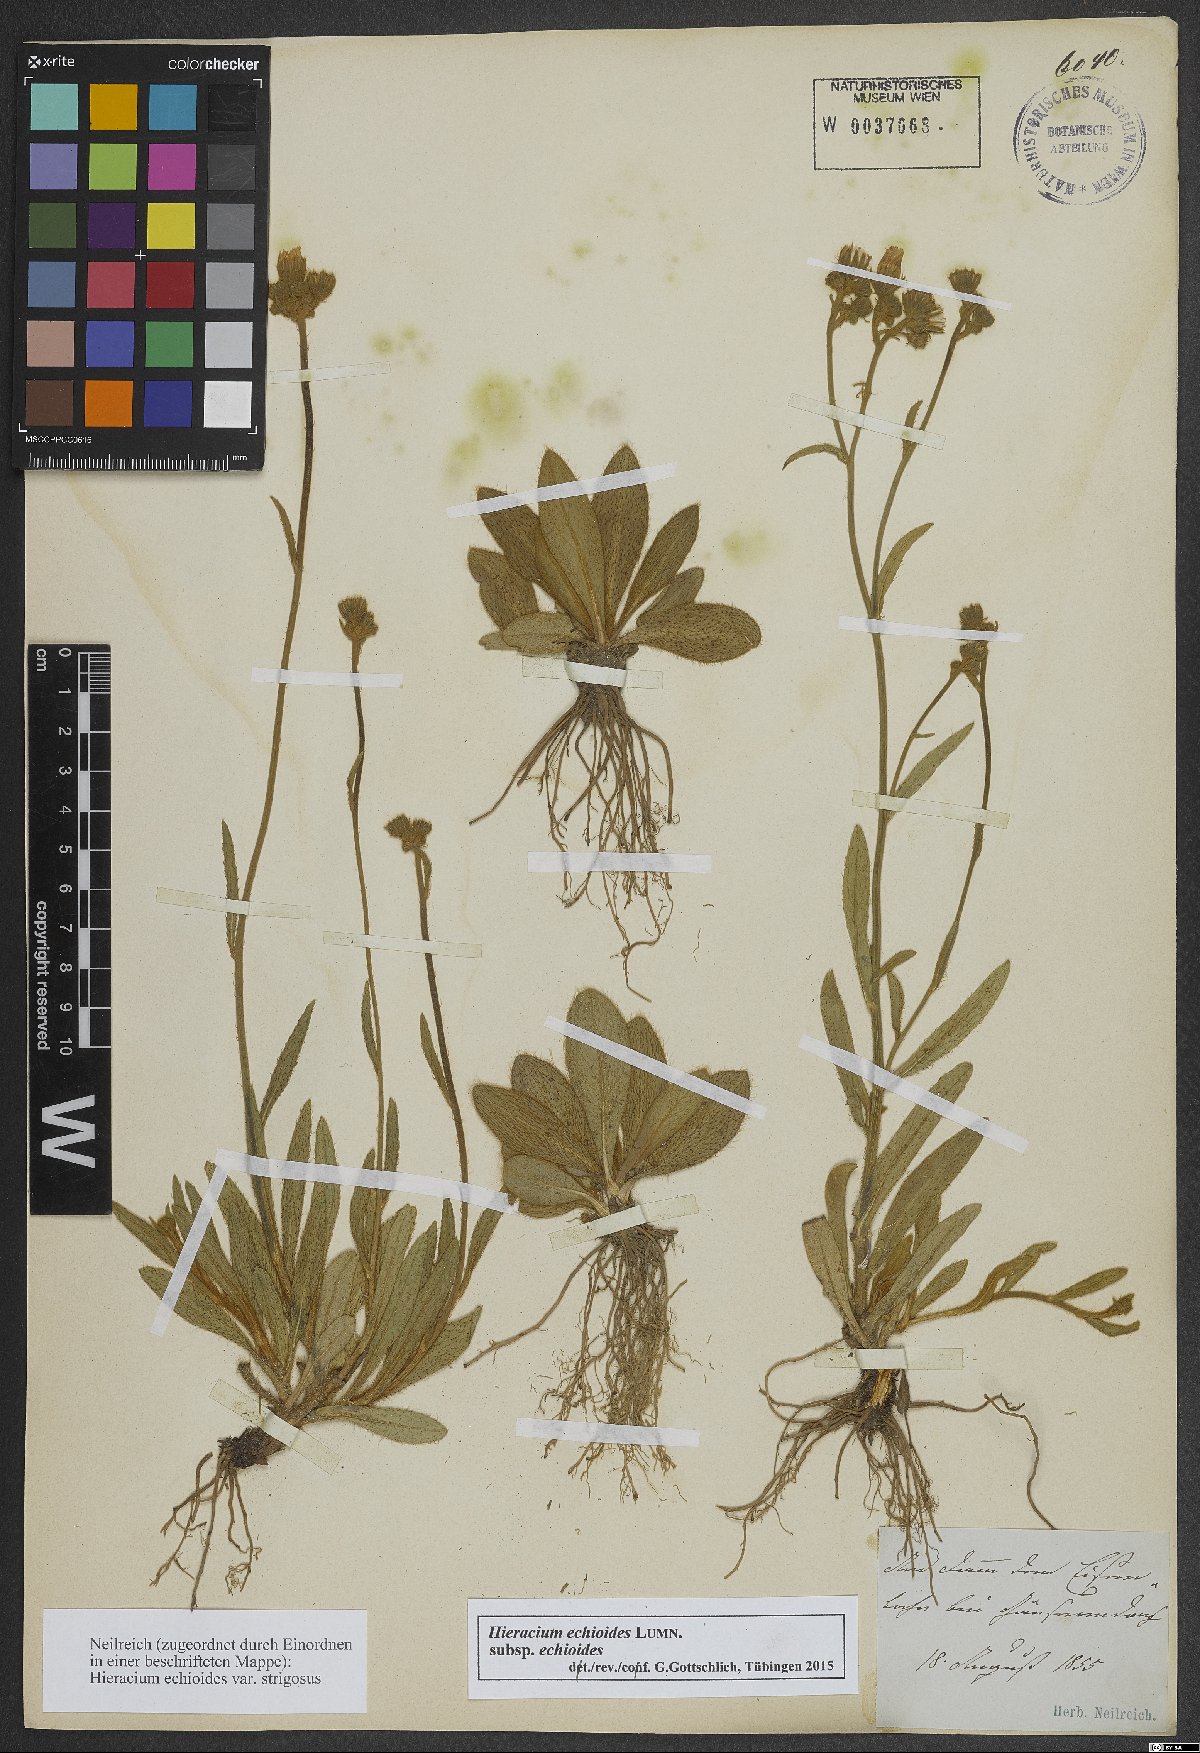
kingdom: Plantae
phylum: Tracheophyta
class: Magnoliopsida
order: Asterales
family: Asteraceae
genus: Pilosella
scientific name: Pilosella echioides
